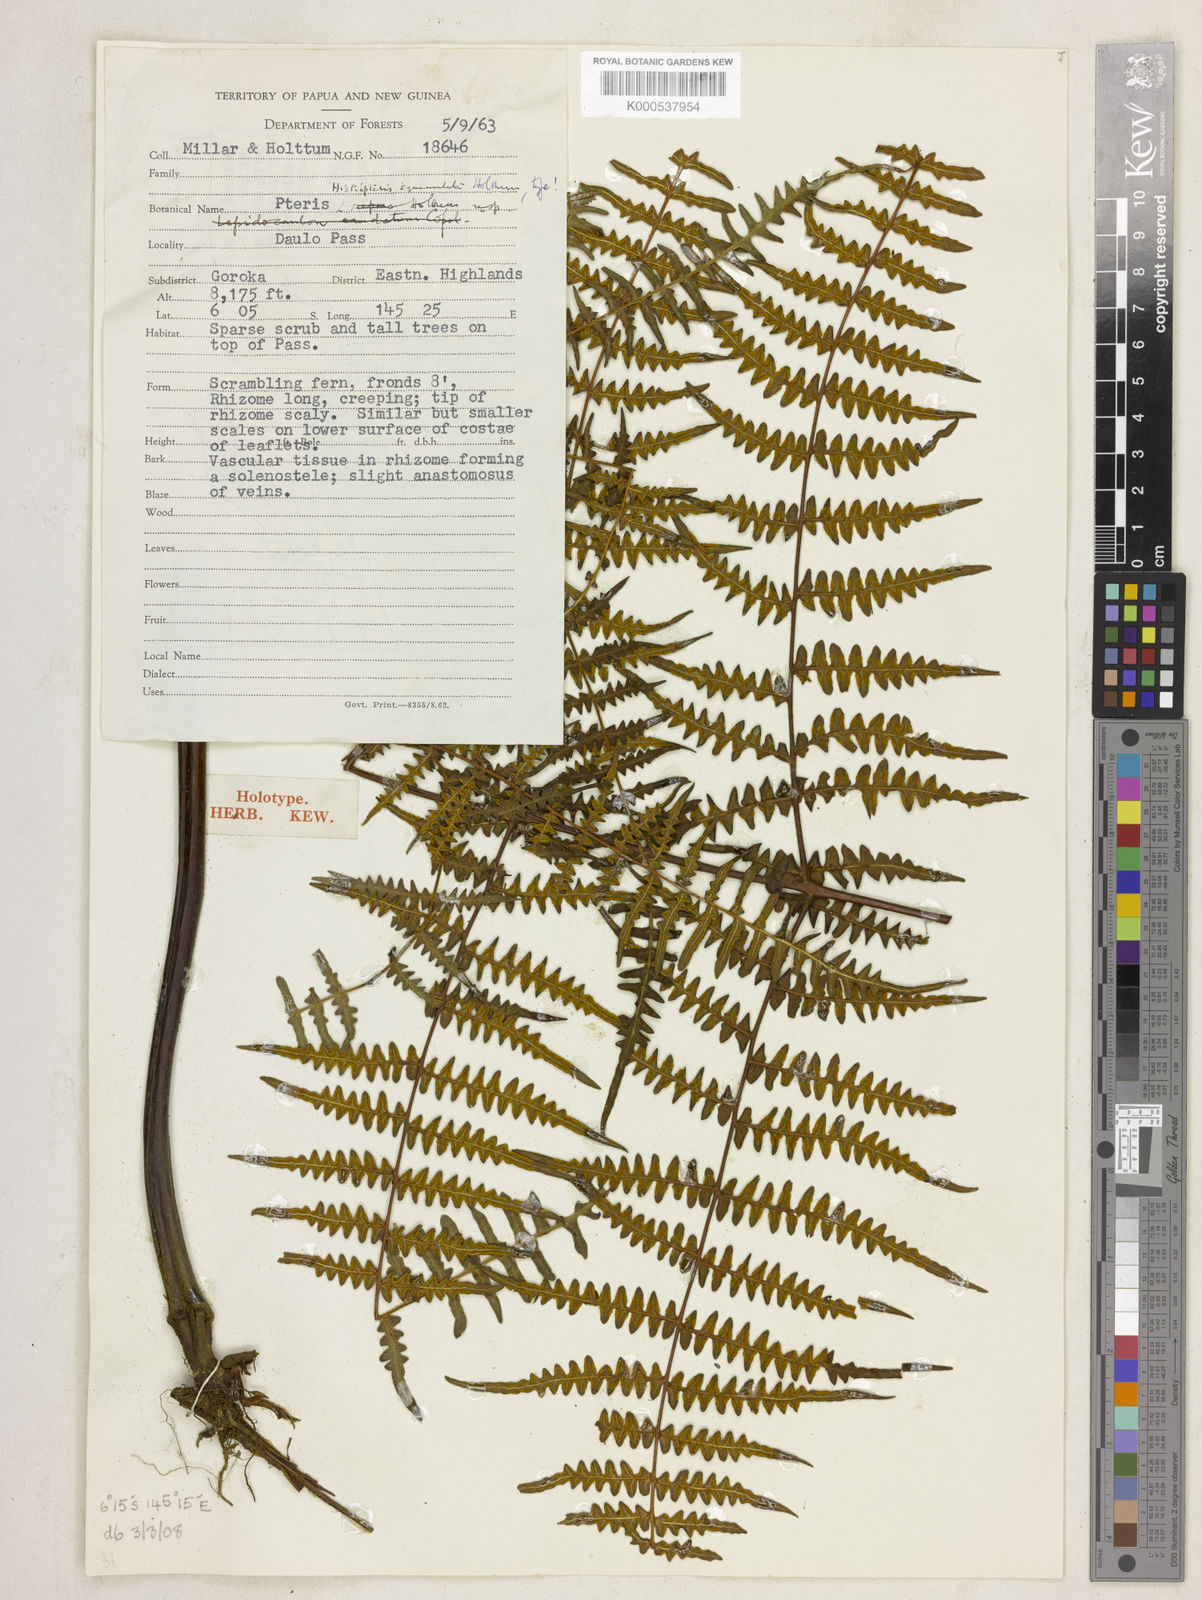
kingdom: Plantae
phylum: Tracheophyta
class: Polypodiopsida
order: Polypodiales
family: Dennstaedtiaceae
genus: Histiopteris
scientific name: Histiopteris squamulata
